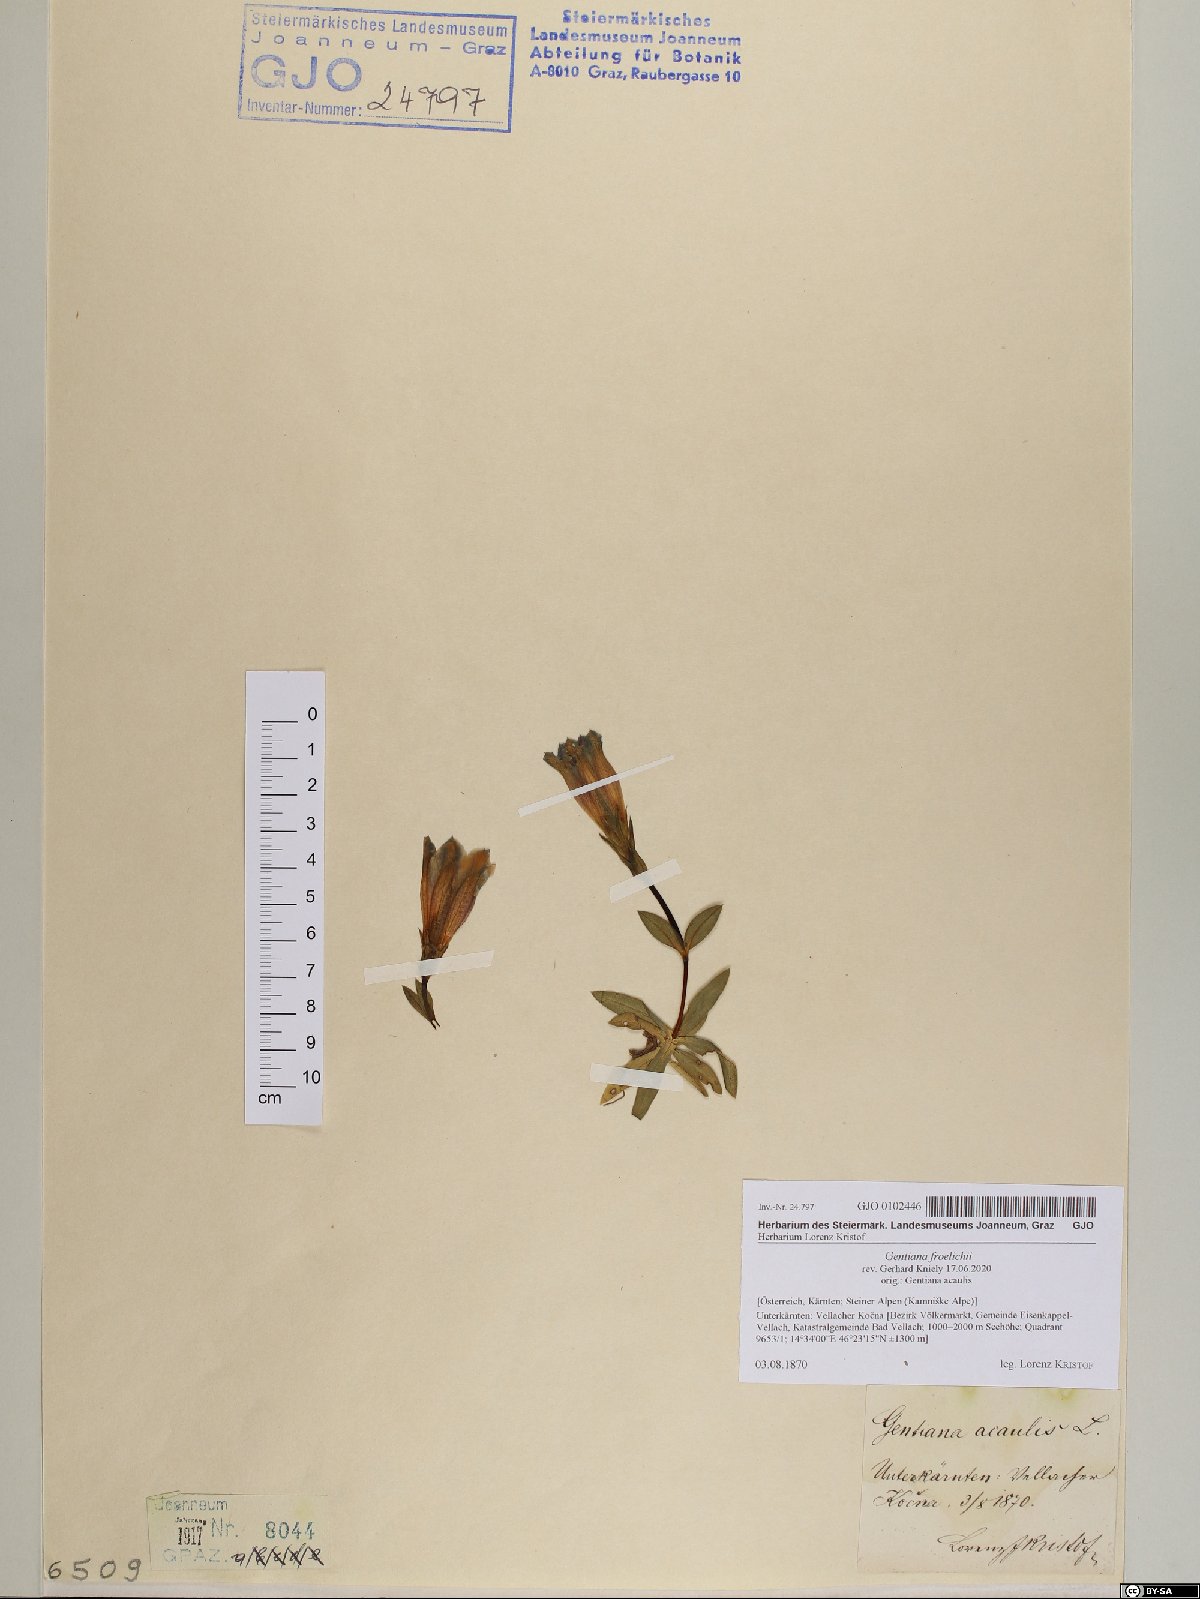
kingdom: Plantae
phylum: Tracheophyta
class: Magnoliopsida
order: Gentianales
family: Gentianaceae
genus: Gentiana
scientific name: Gentiana froelichii
